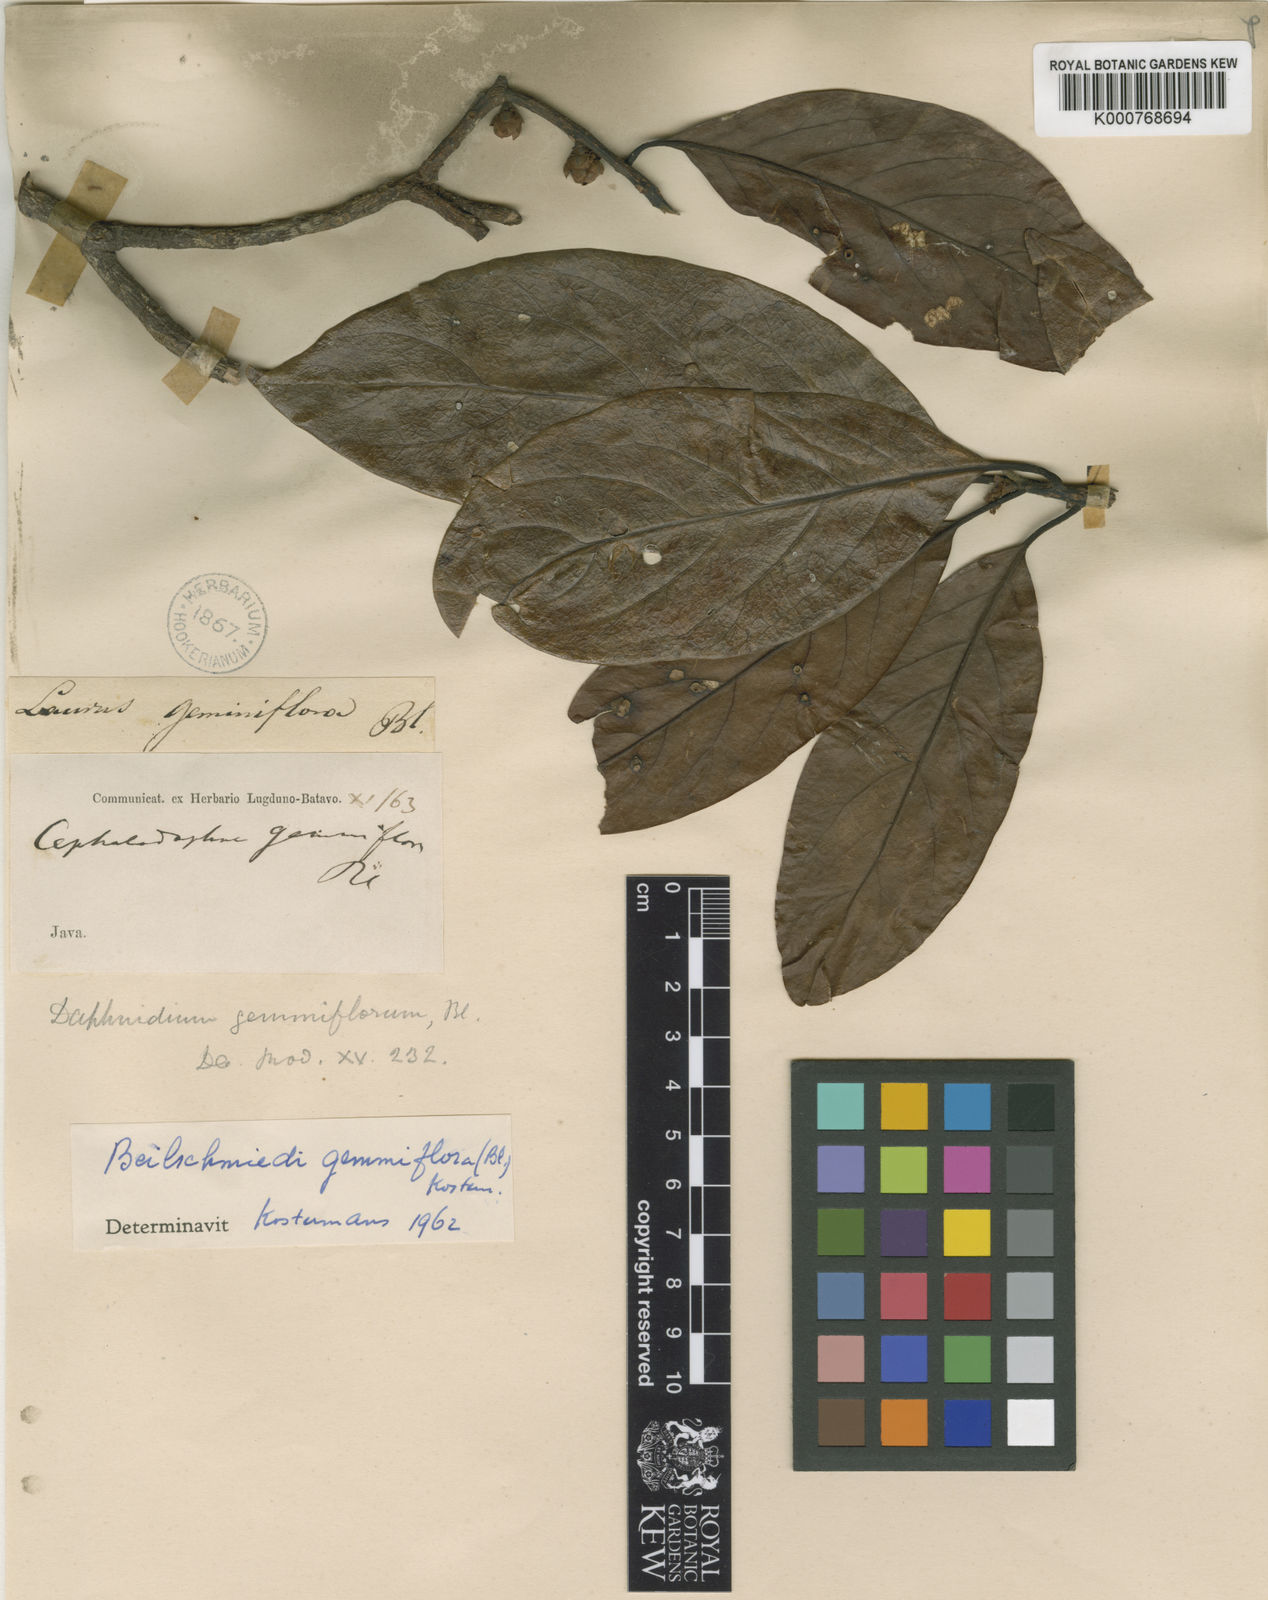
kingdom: Plantae
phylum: Tracheophyta
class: Magnoliopsida
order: Laurales
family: Lauraceae
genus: Beilschmiedia
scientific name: Beilschmiedia gemmiflora
